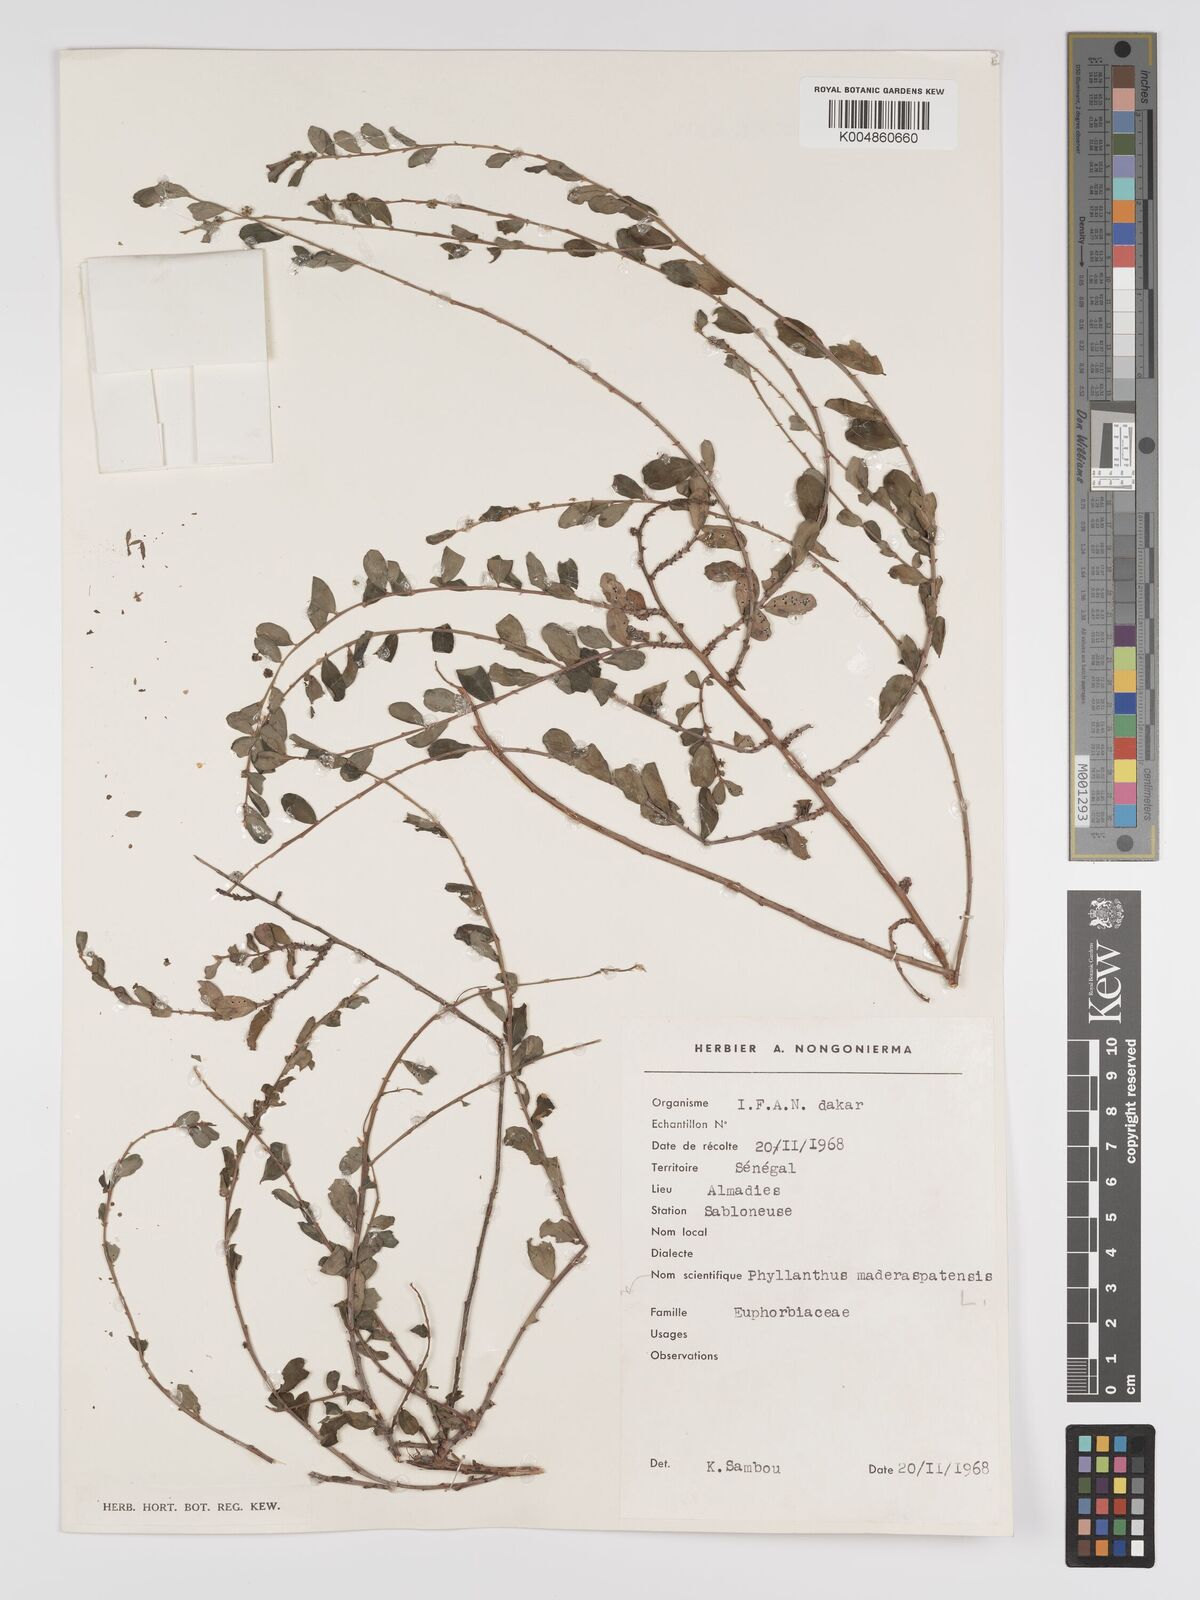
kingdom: Plantae
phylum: Tracheophyta
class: Magnoliopsida
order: Malpighiales
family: Phyllanthaceae
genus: Phyllanthus
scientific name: Phyllanthus
